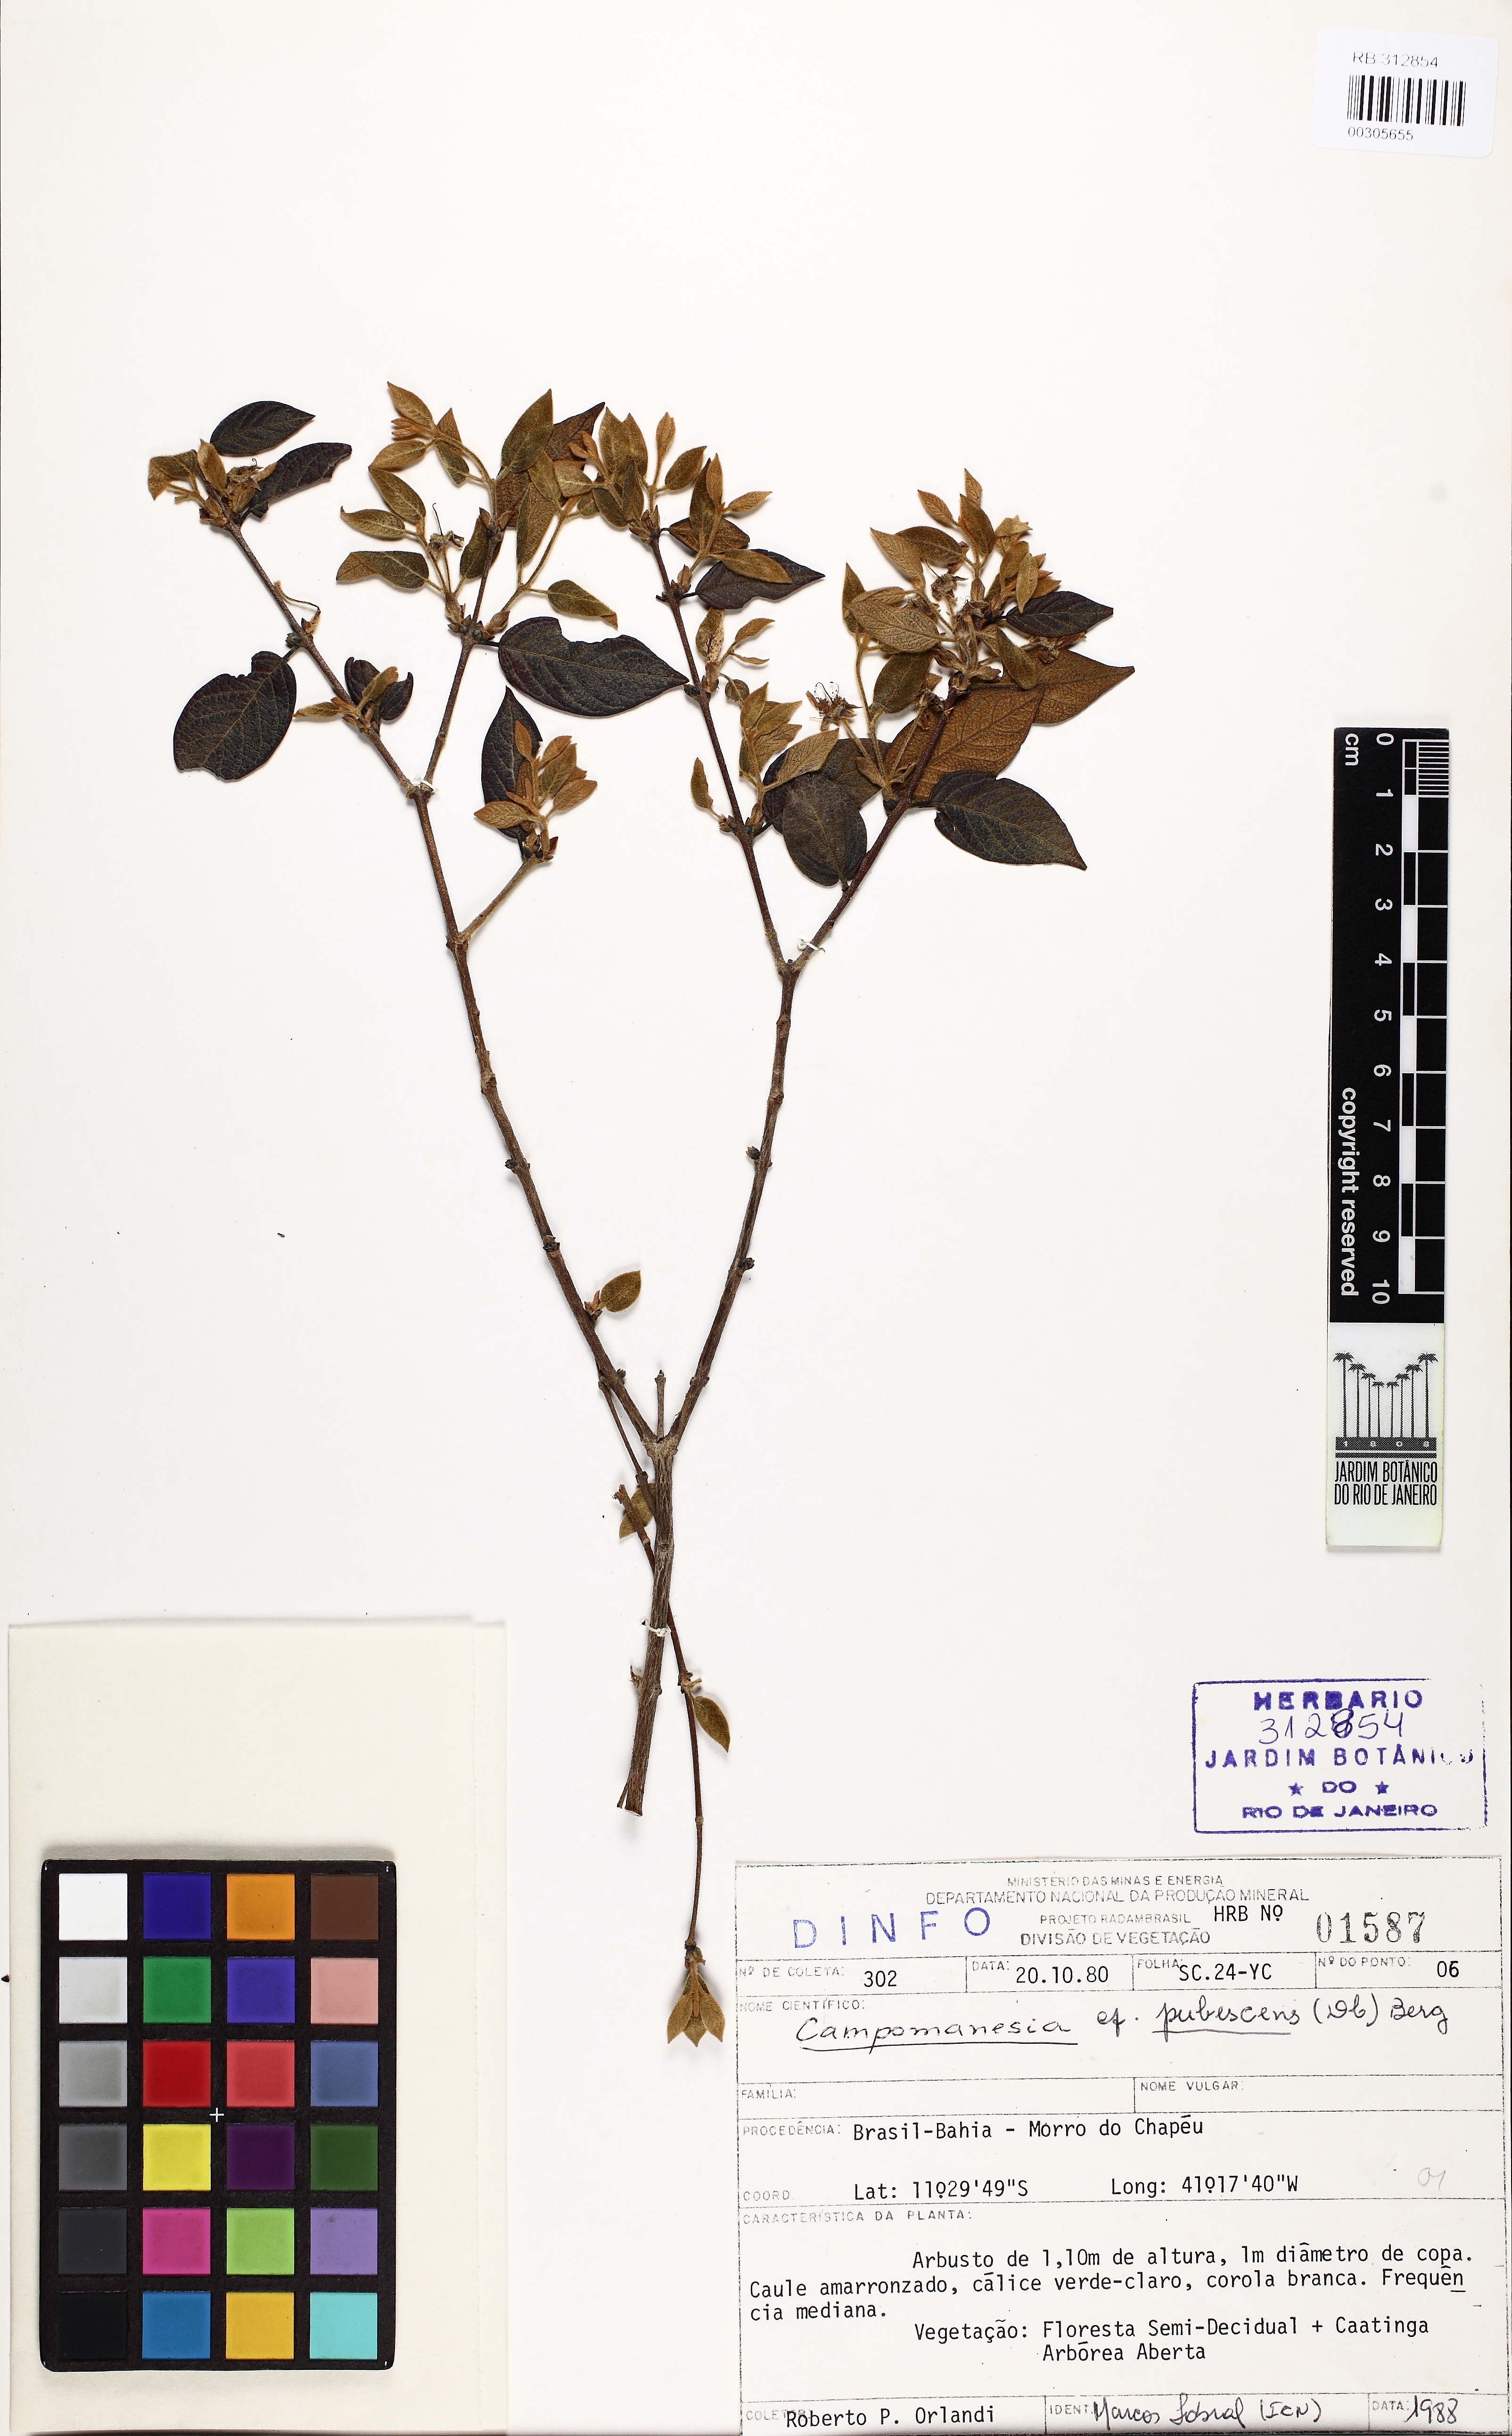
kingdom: Plantae
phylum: Tracheophyta
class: Magnoliopsida
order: Myrtales
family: Myrtaceae
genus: Campomanesia
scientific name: Campomanesia pubescens
